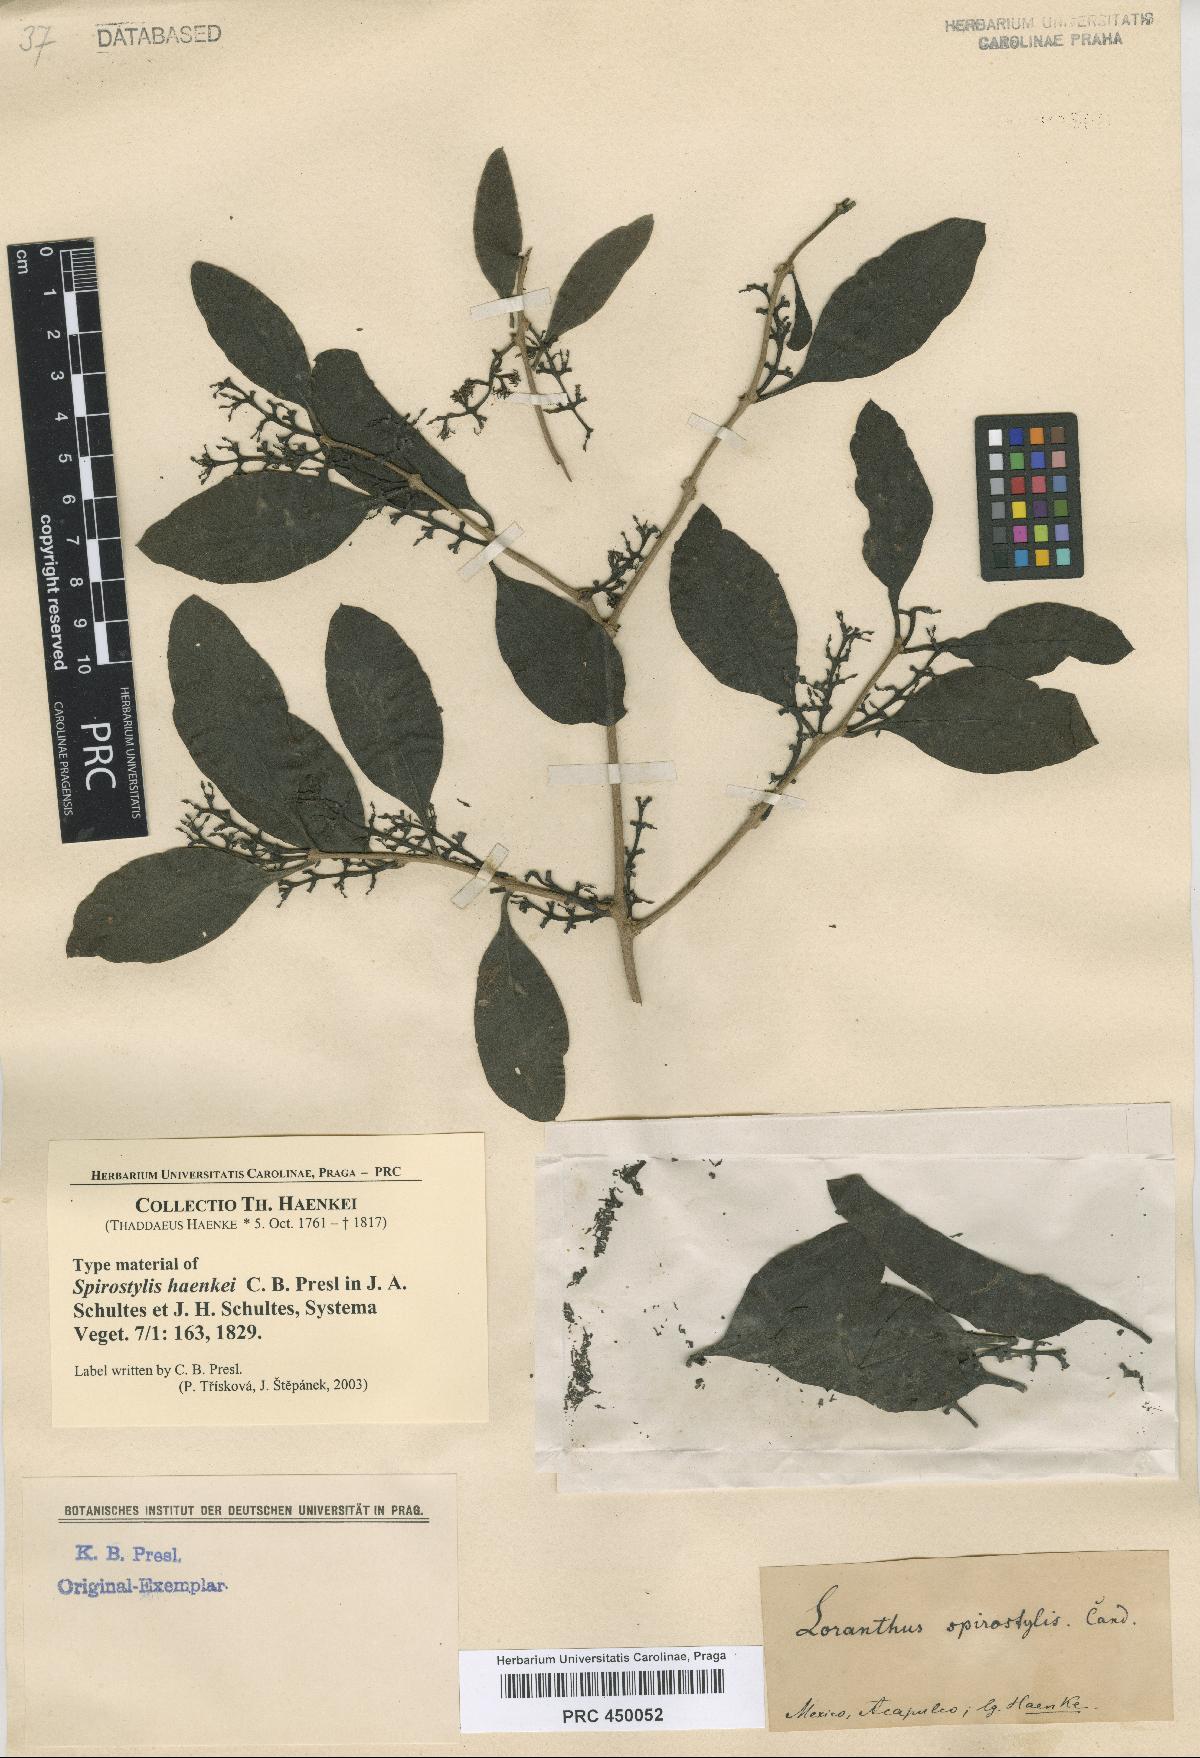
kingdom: Plantae
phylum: Tracheophyta
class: Magnoliopsida
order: Santalales
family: Loranthaceae
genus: Struthanthus
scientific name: Struthanthus interruptus
